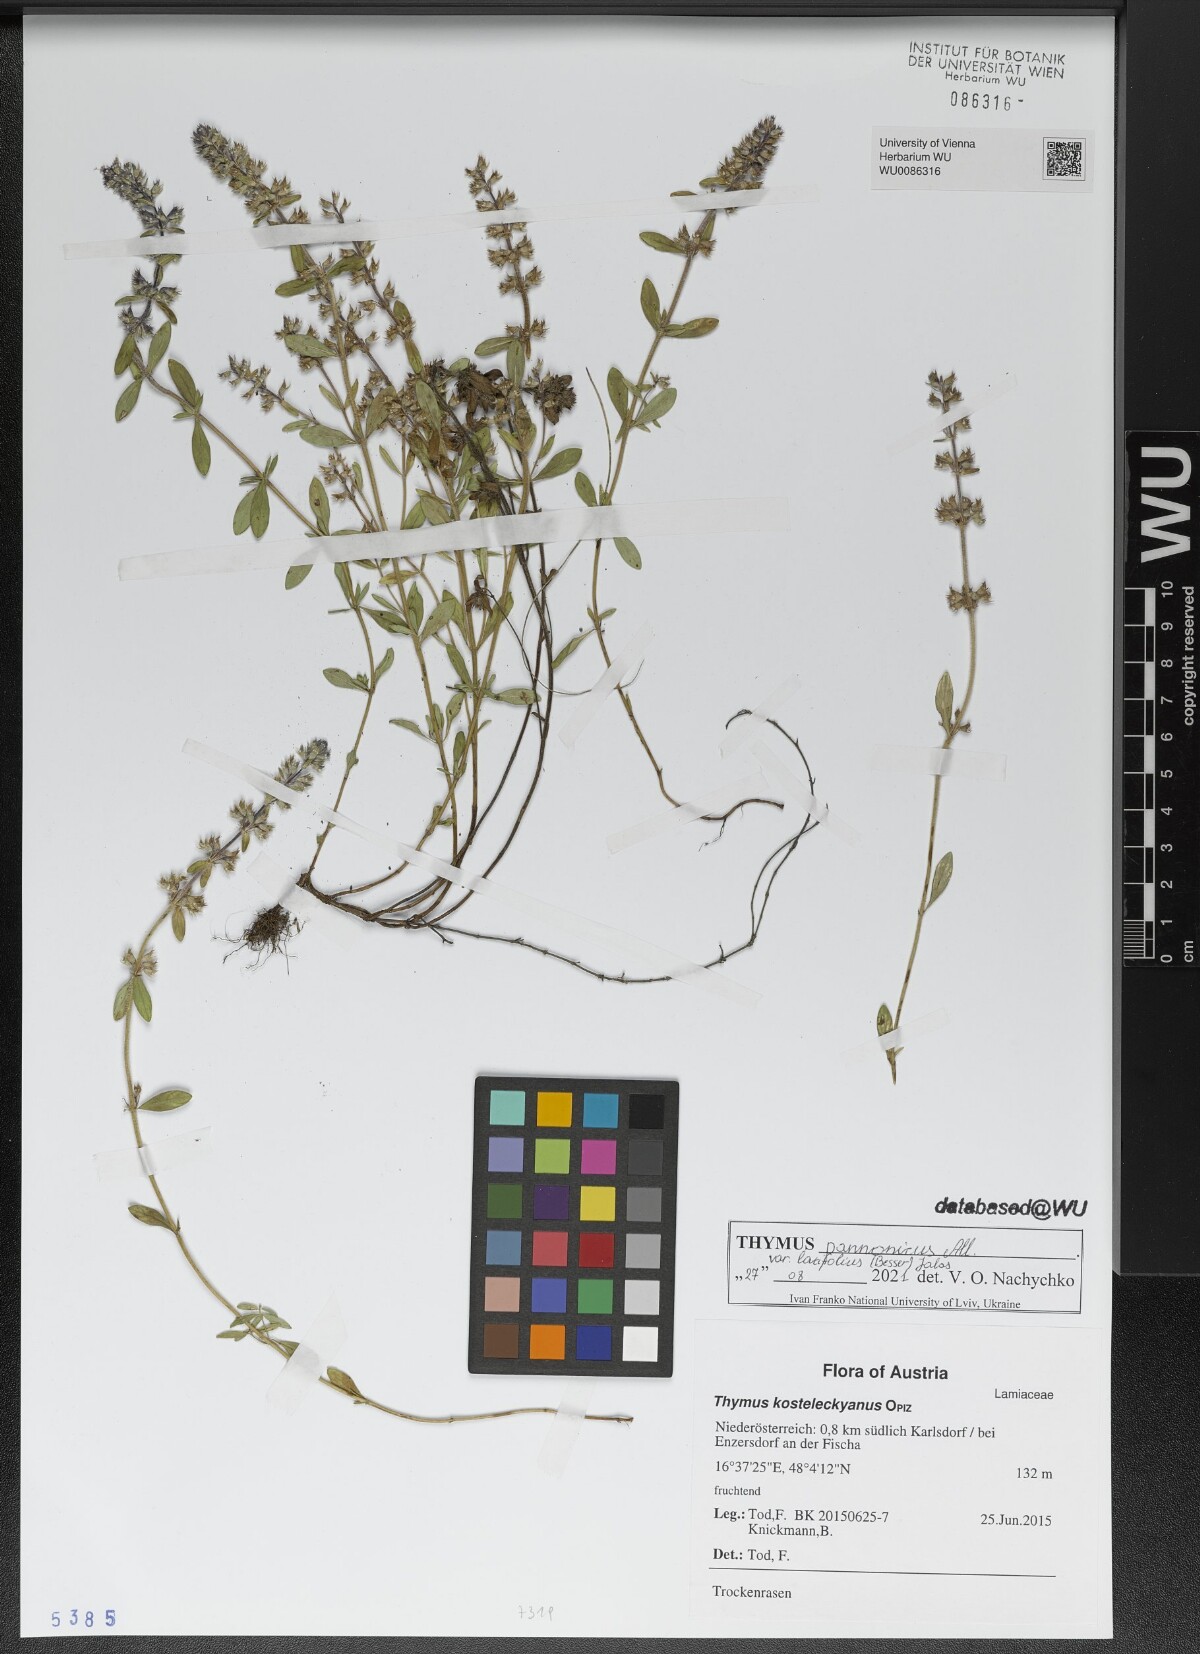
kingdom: Plantae
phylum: Tracheophyta
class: Magnoliopsida
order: Lamiales
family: Lamiaceae
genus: Thymus
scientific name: Thymus pannonicus
